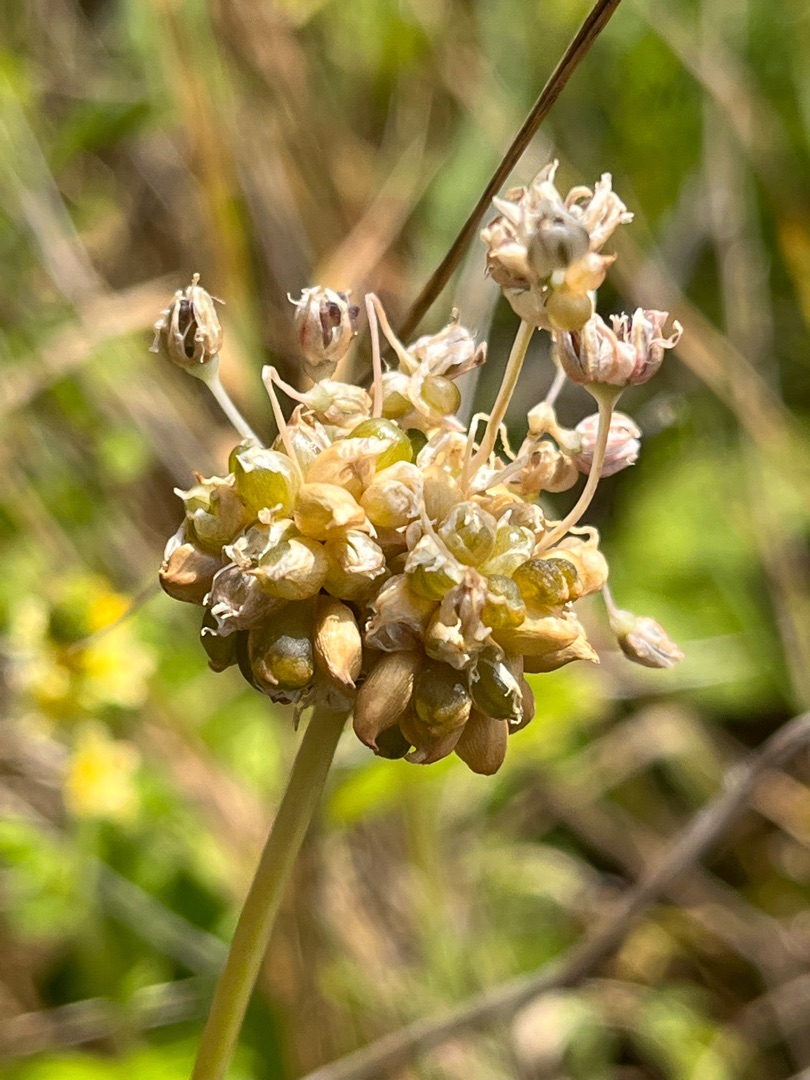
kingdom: Plantae
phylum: Tracheophyta
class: Liliopsida
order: Asparagales
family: Amaryllidaceae
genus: Allium
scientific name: Allium vineale
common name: Sand-løg
